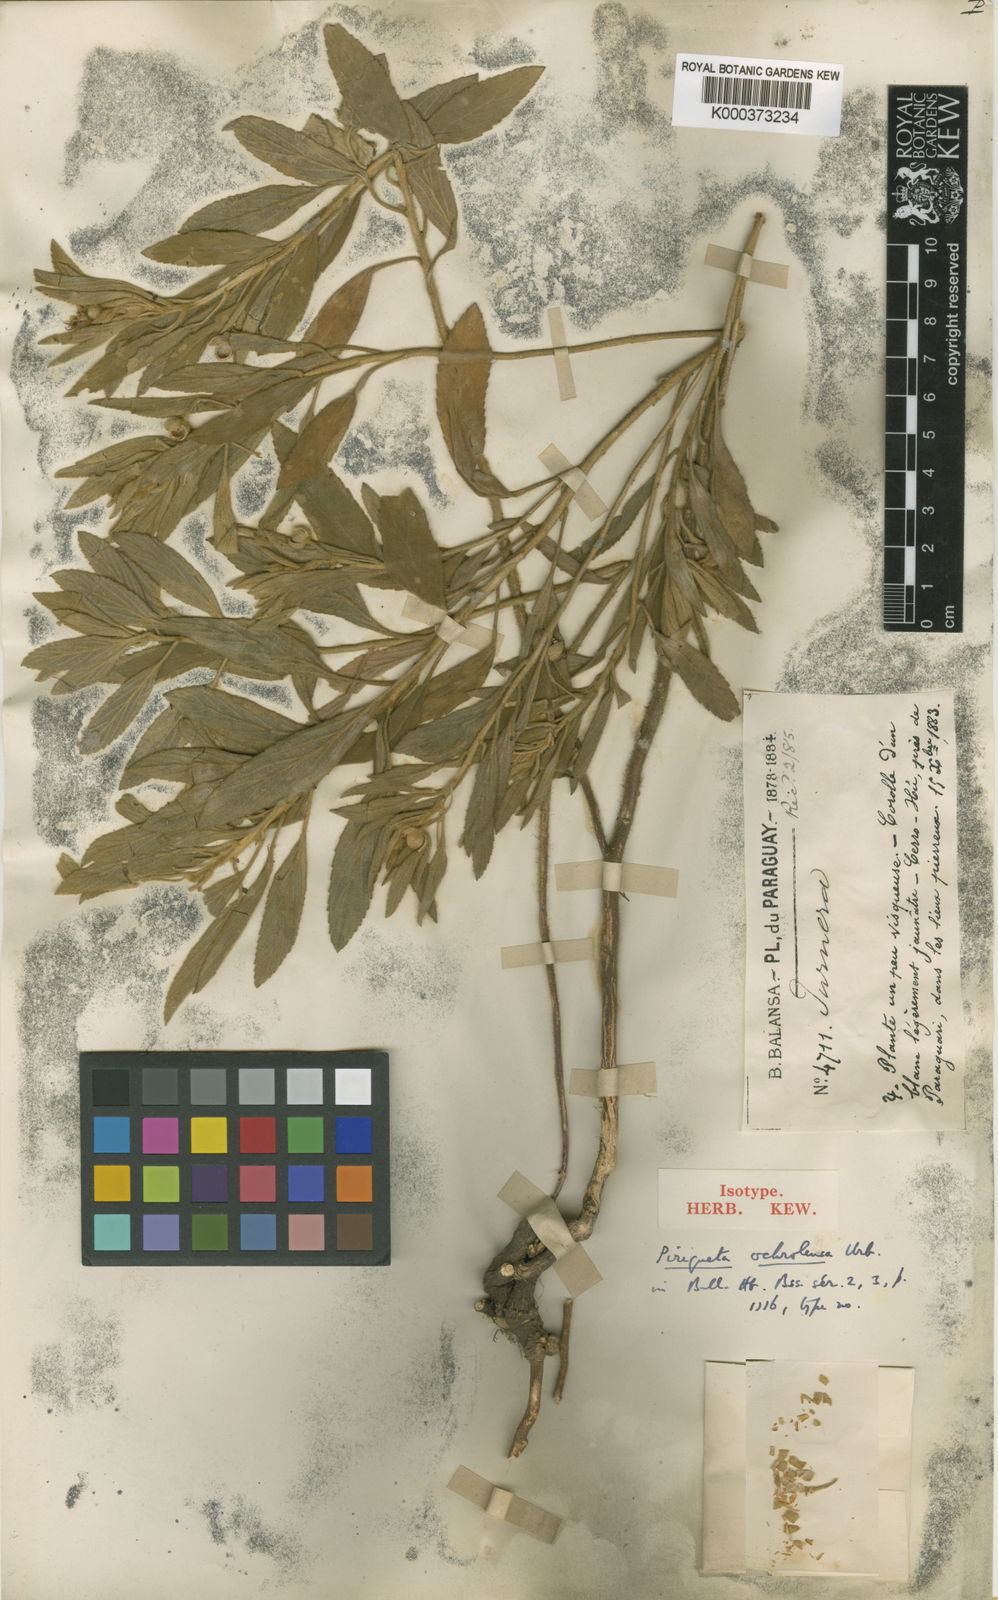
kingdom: Plantae
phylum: Tracheophyta
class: Magnoliopsida
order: Malpighiales
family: Turneraceae
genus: Piriqueta
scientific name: Piriqueta
